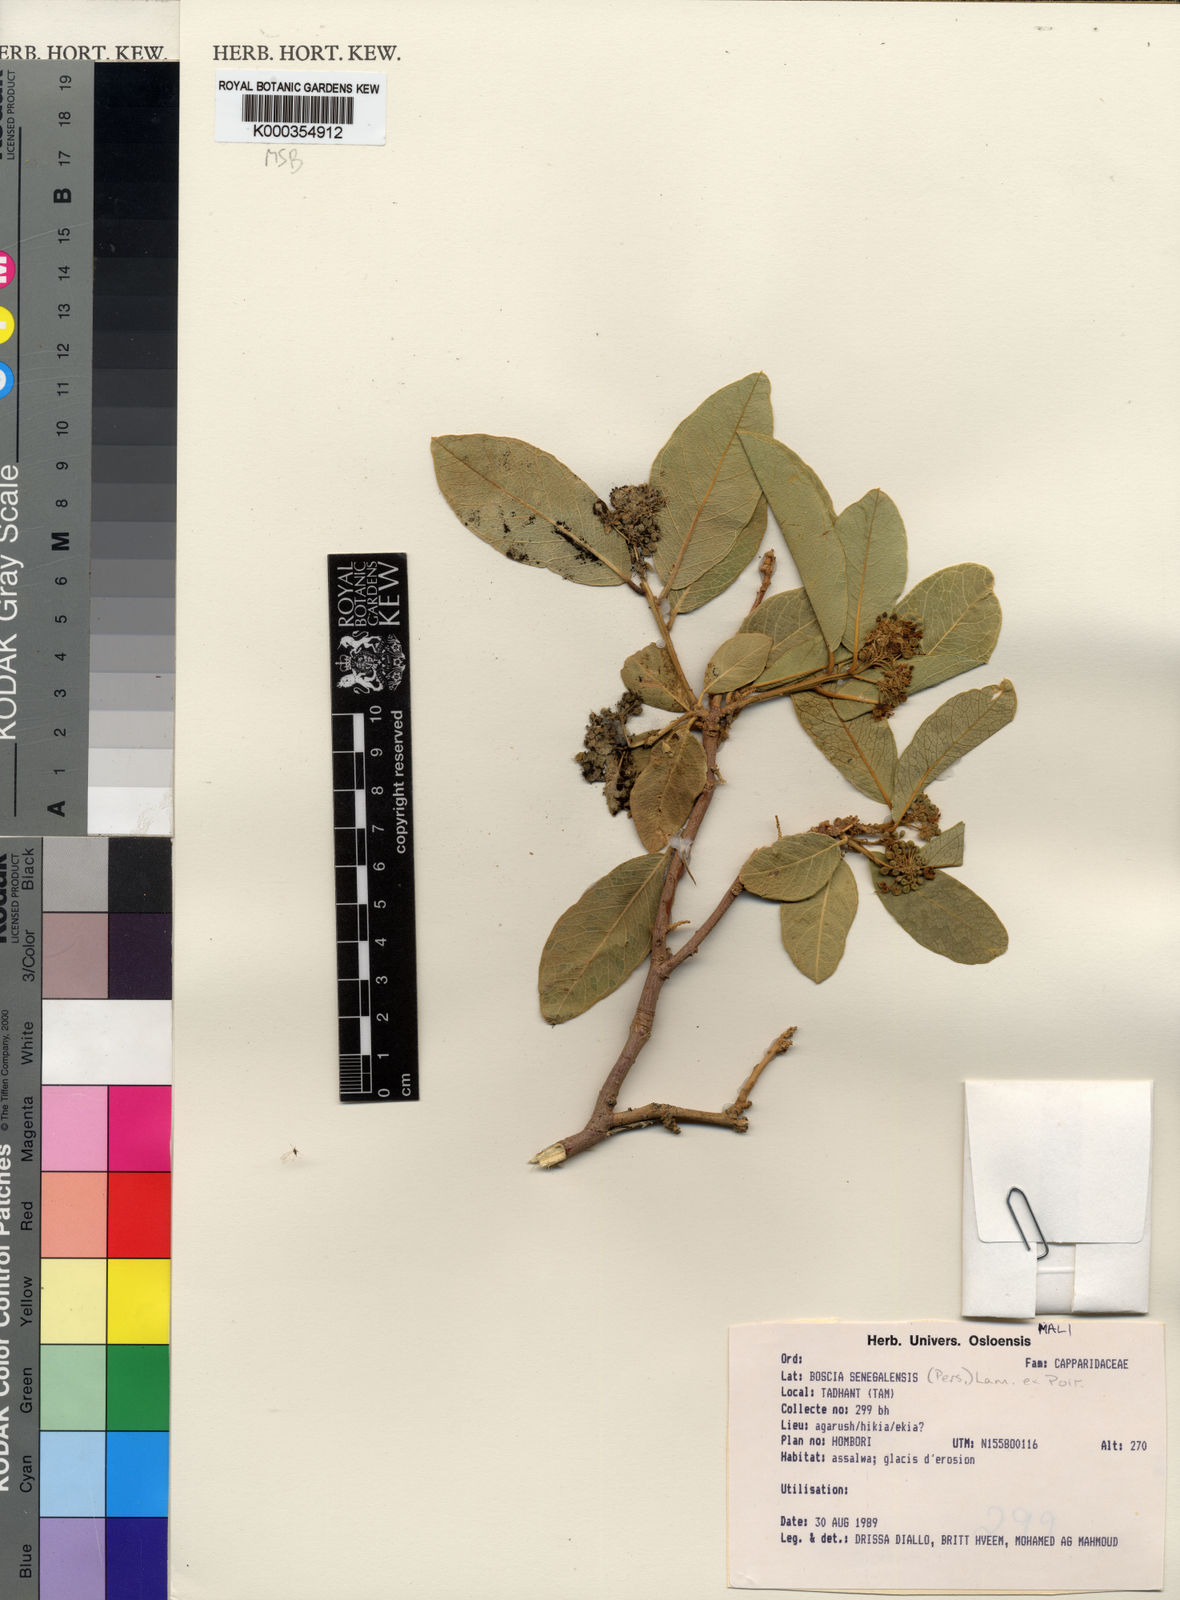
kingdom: Plantae
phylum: Tracheophyta
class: Magnoliopsida
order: Brassicales
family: Capparaceae
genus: Boscia
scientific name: Boscia senegalensis
